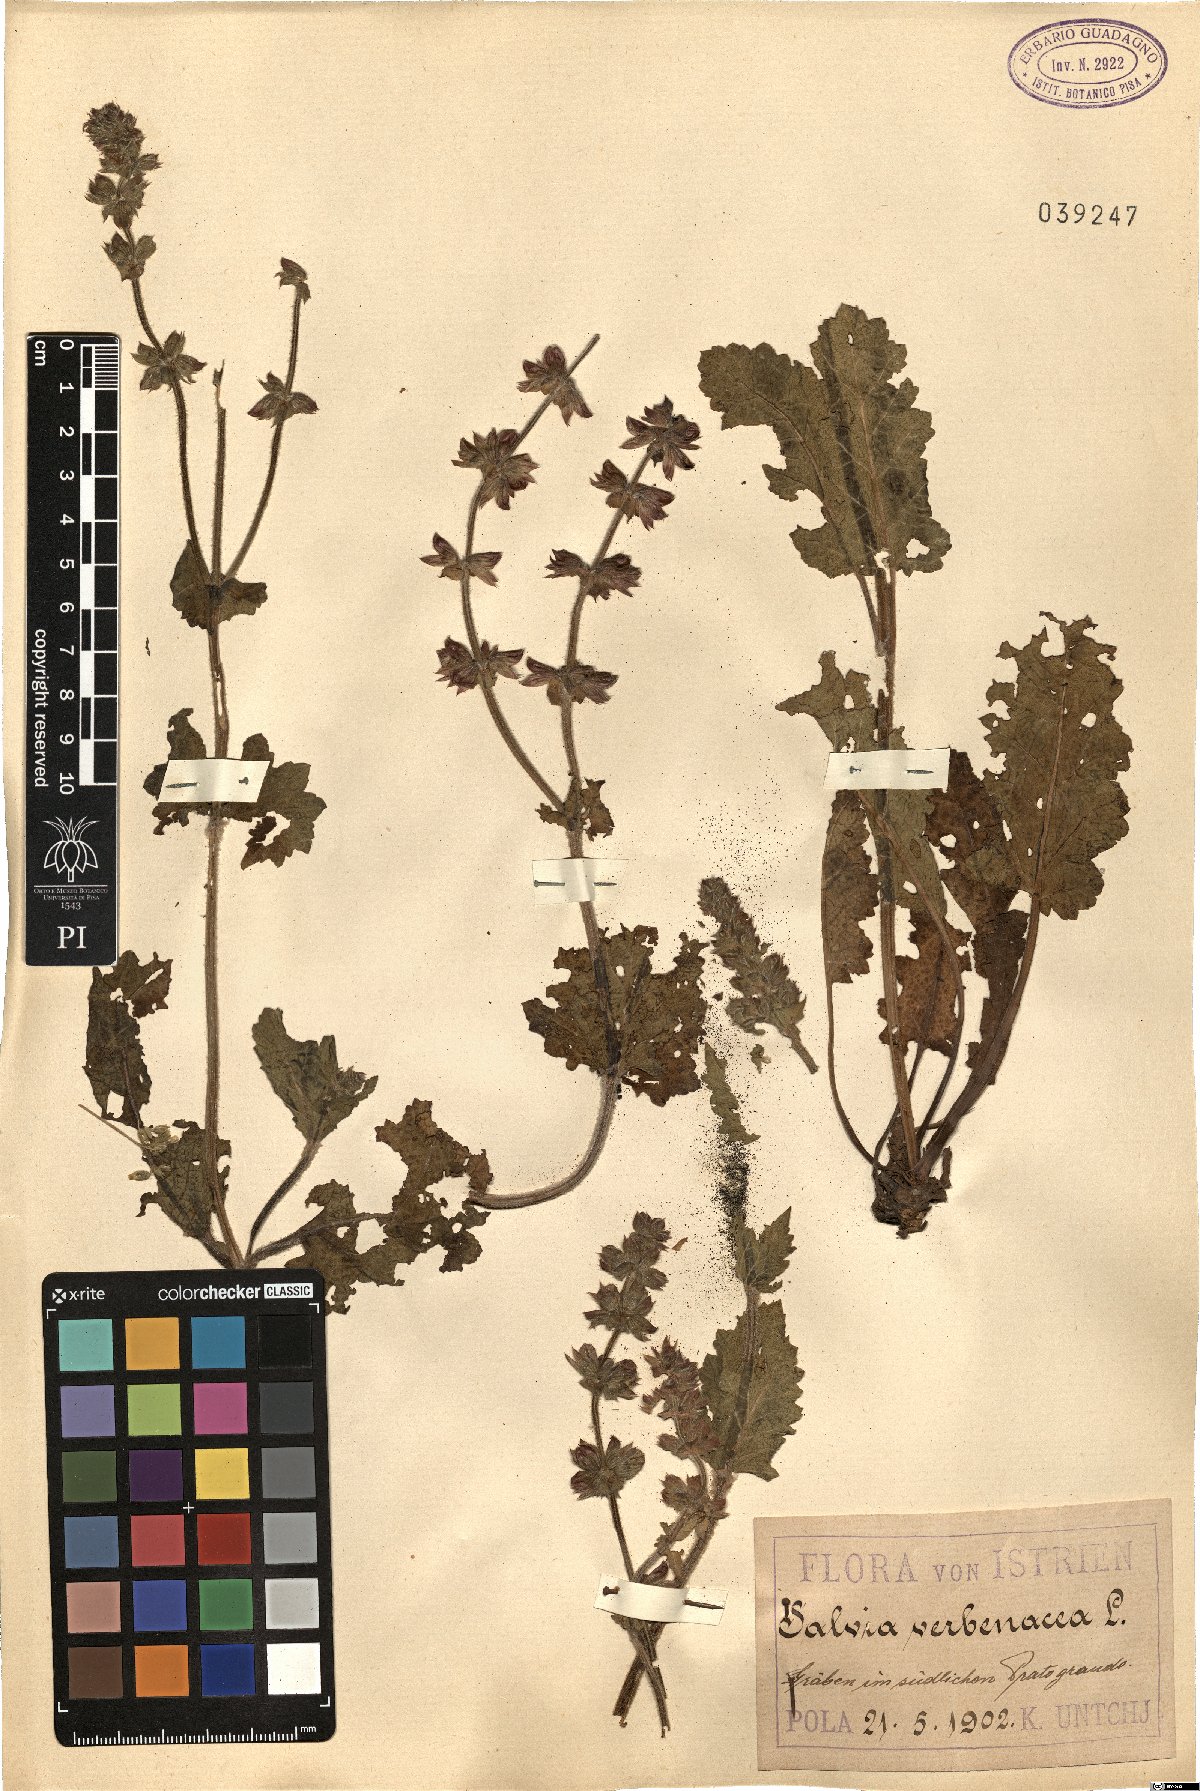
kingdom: Plantae
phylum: Tracheophyta
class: Magnoliopsida
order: Lamiales
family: Lamiaceae
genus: Salvia
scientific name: Salvia verbenaca
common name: Wild clary
